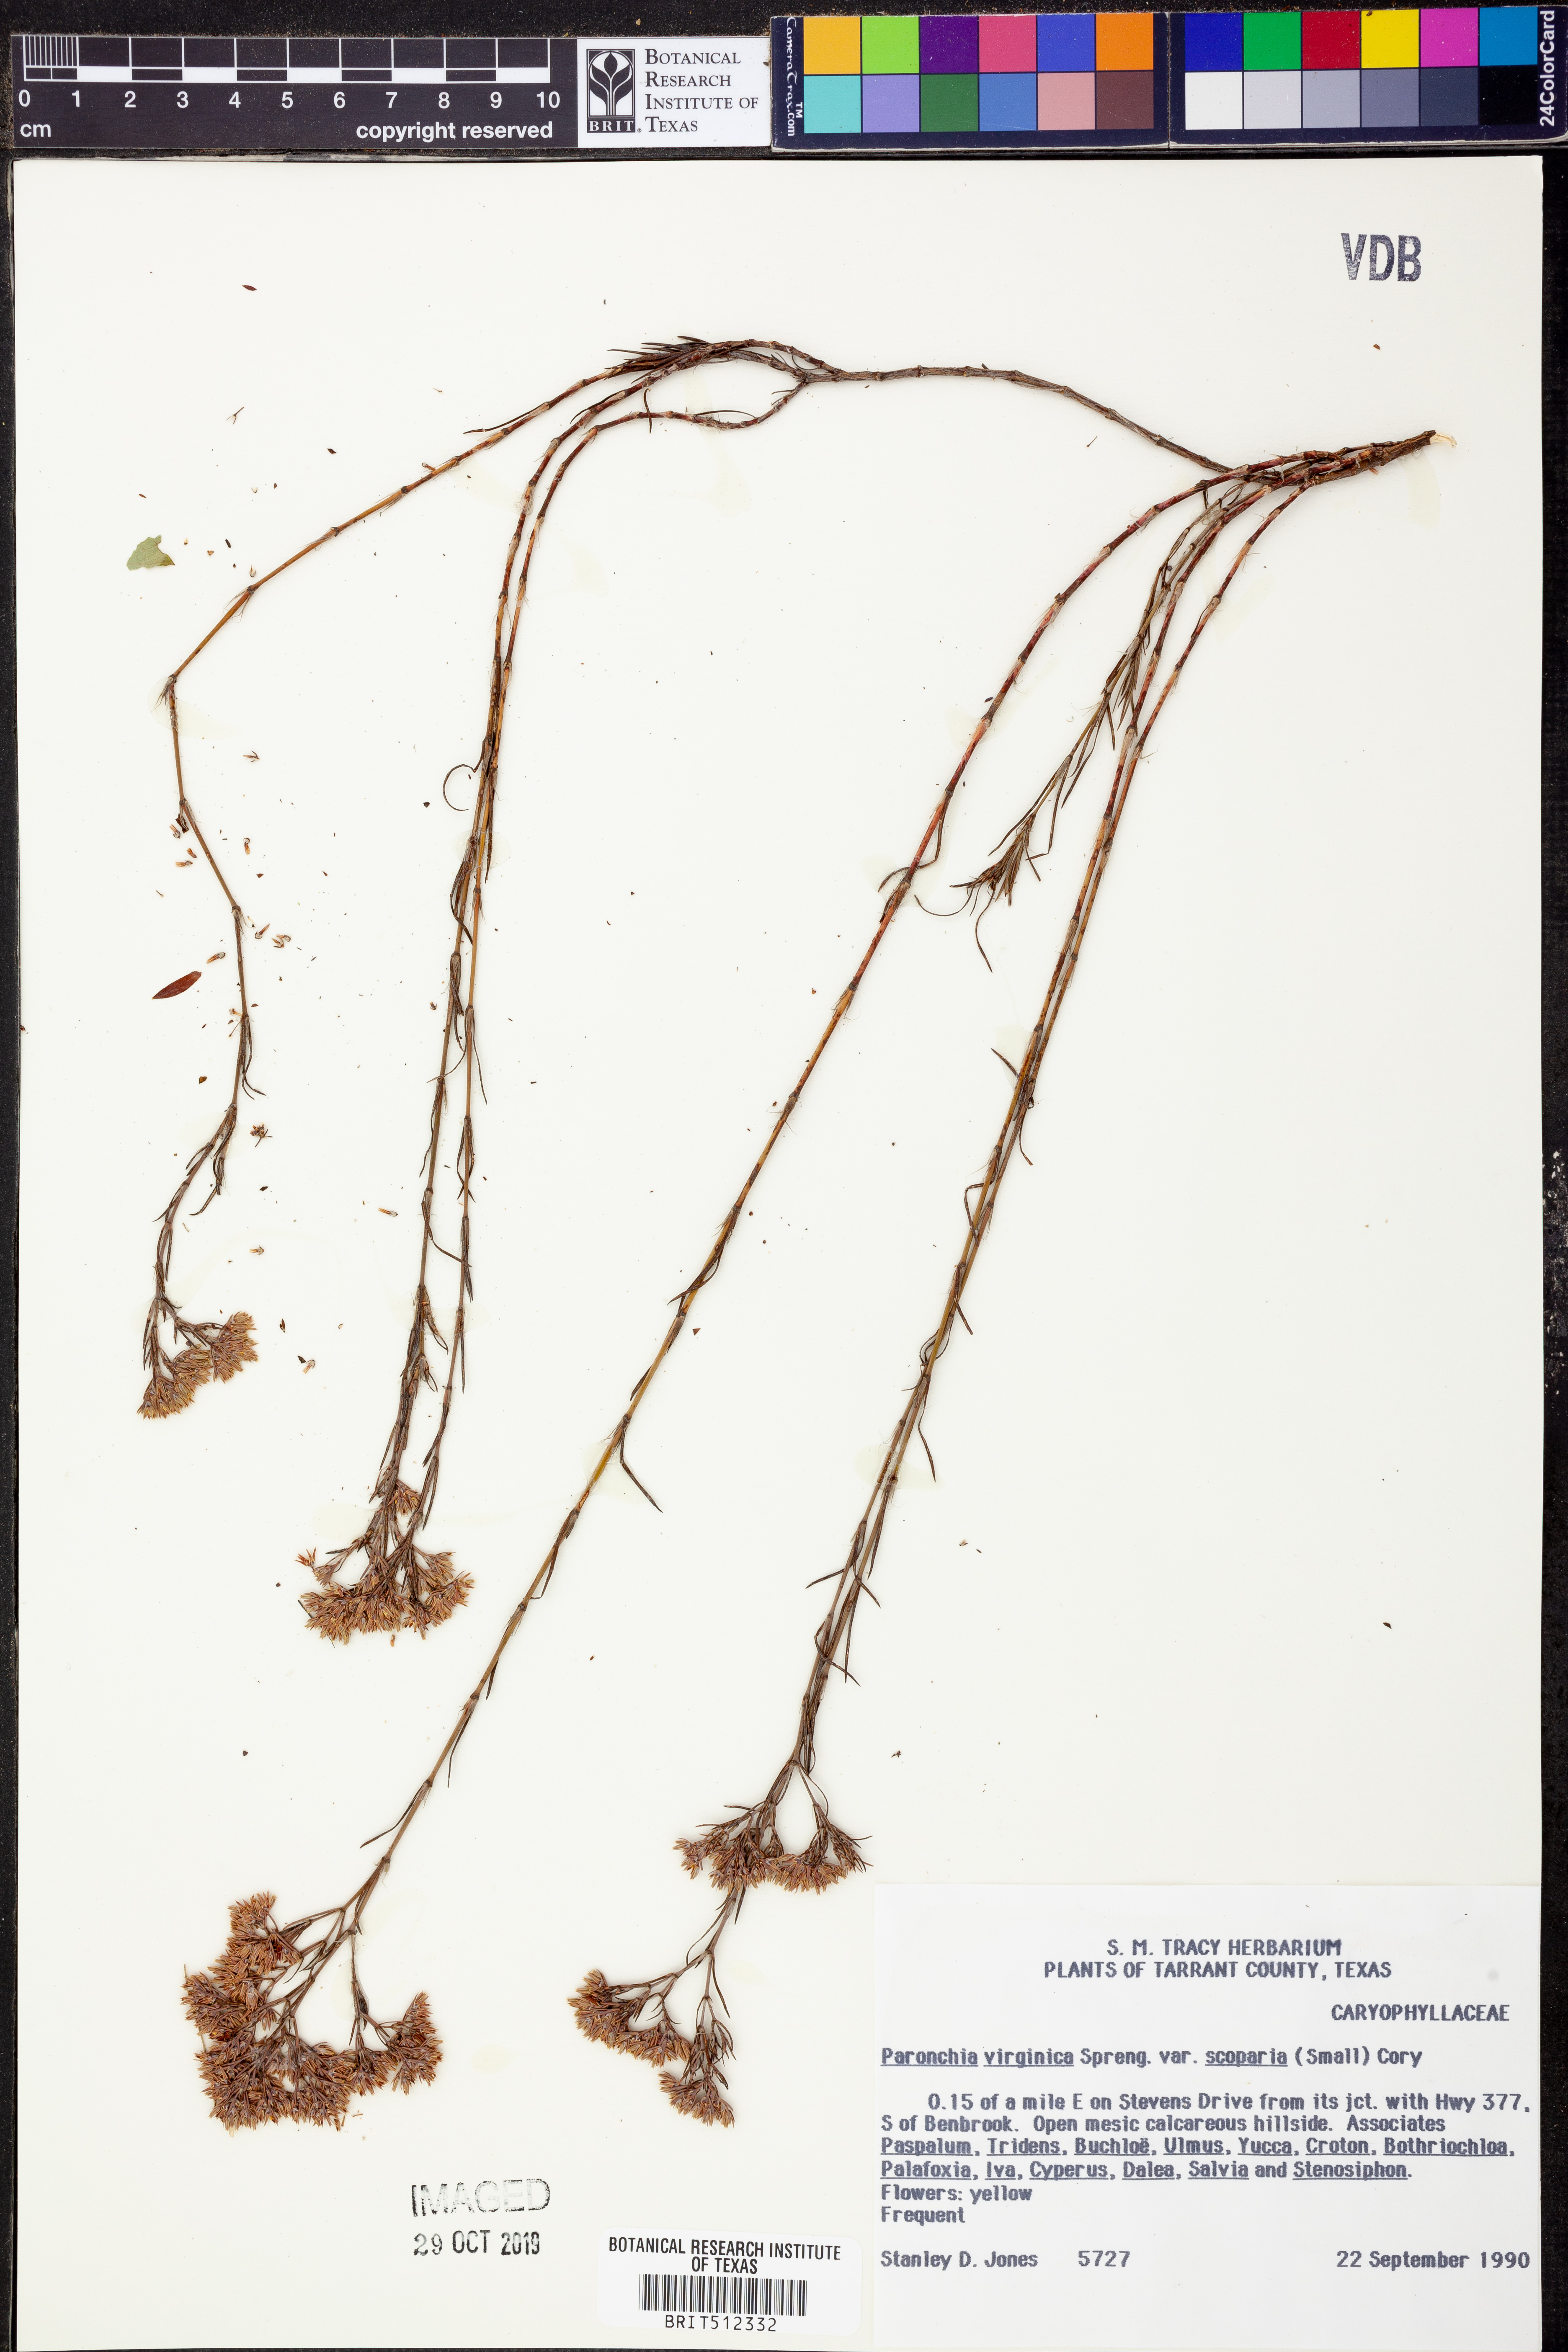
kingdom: Plantae
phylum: Tracheophyta
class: Magnoliopsida
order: Caryophyllales
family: Caryophyllaceae
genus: Paronychia
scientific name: Paronychia virginica
